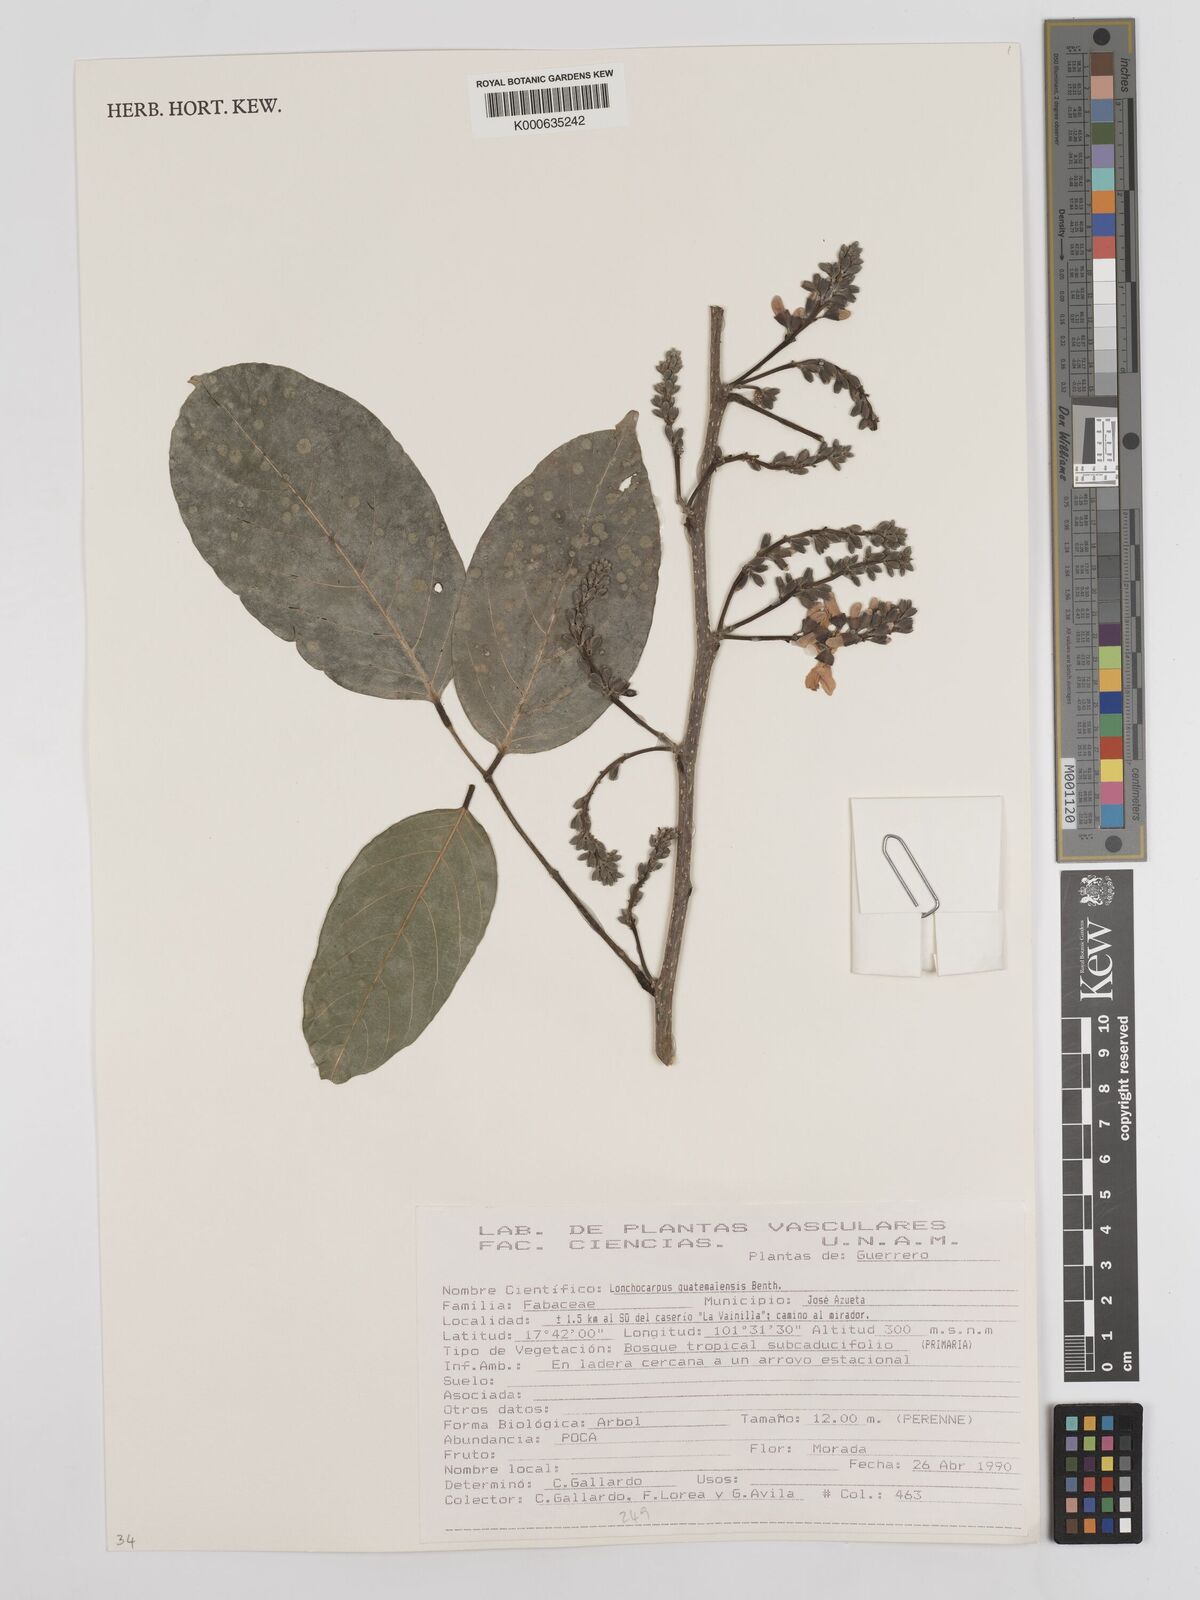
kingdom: Plantae
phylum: Tracheophyta
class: Magnoliopsida
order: Fabales
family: Fabaceae
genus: Lonchocarpus
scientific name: Lonchocarpus guatemalensis
